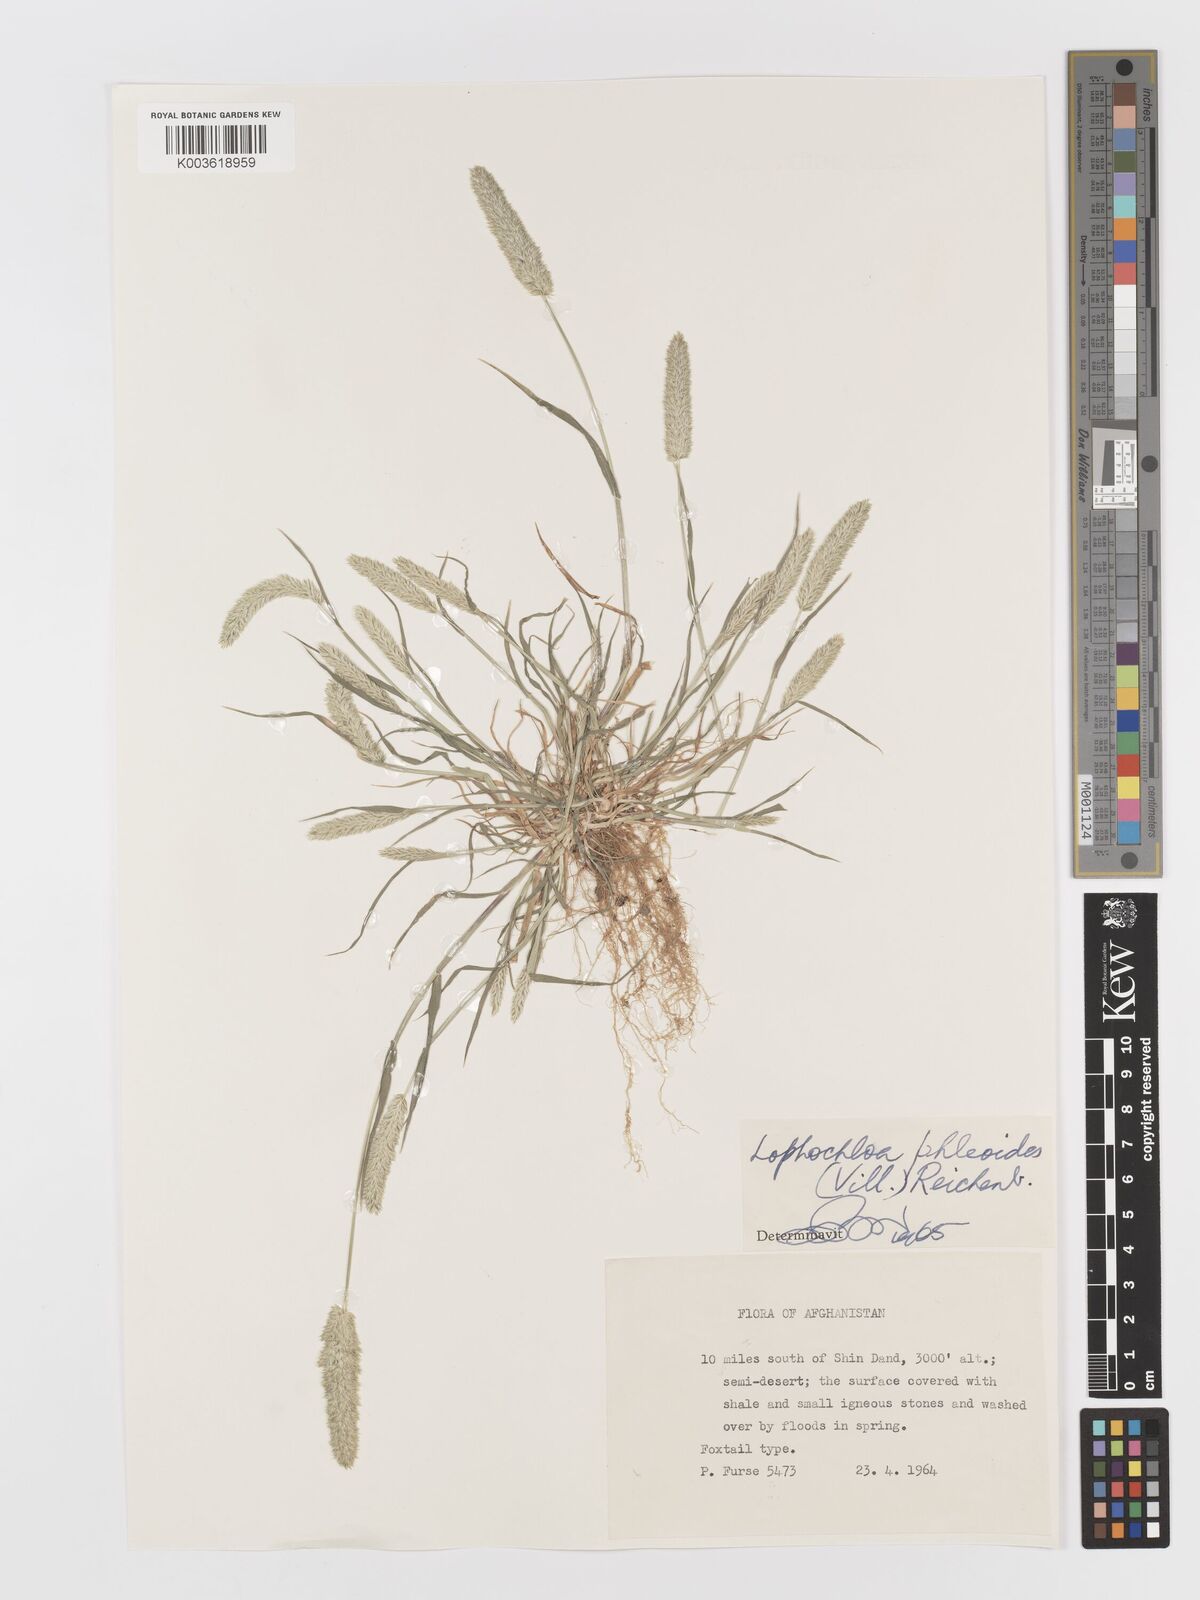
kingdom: Plantae
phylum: Tracheophyta
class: Liliopsida
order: Poales
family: Poaceae
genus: Rostraria
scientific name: Rostraria cristata
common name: Mediterranean hair-grass
